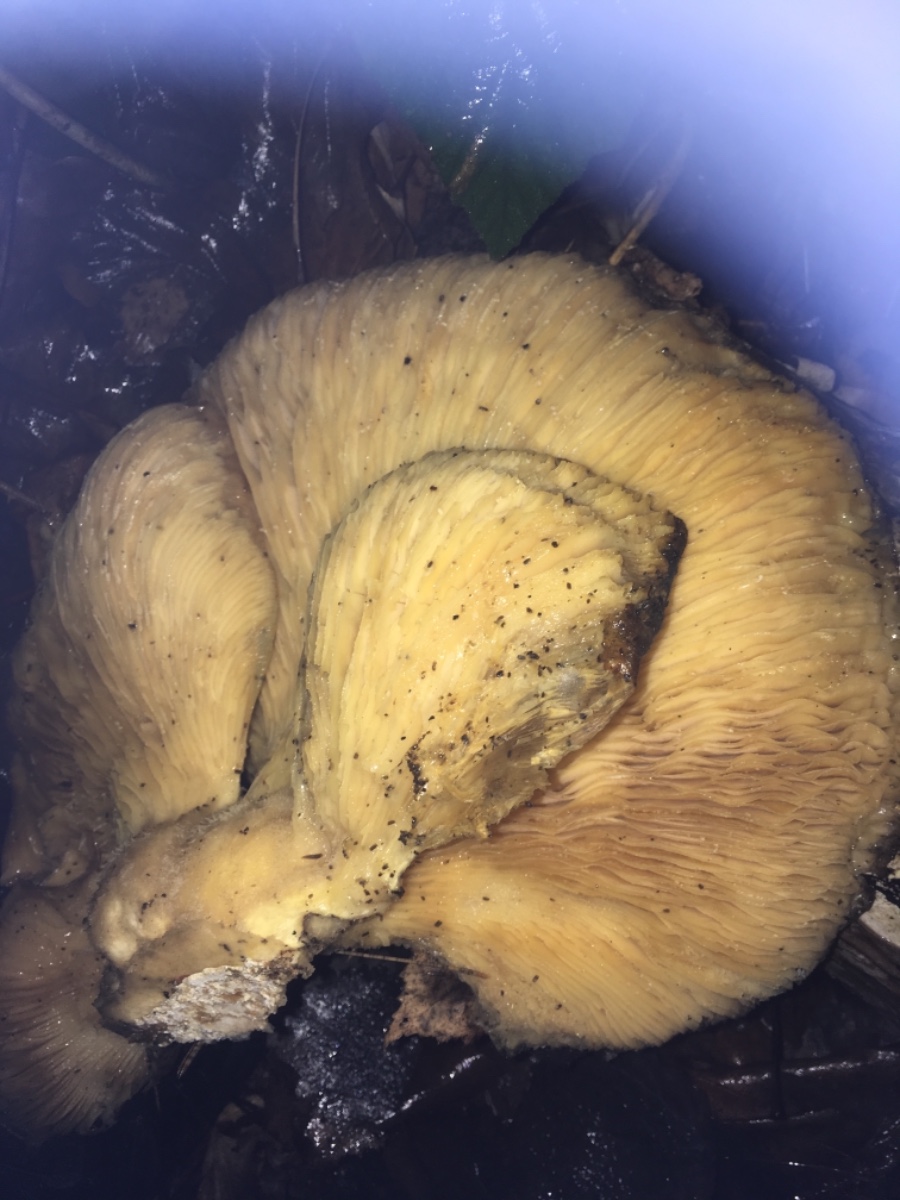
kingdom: Fungi
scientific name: Fungi
